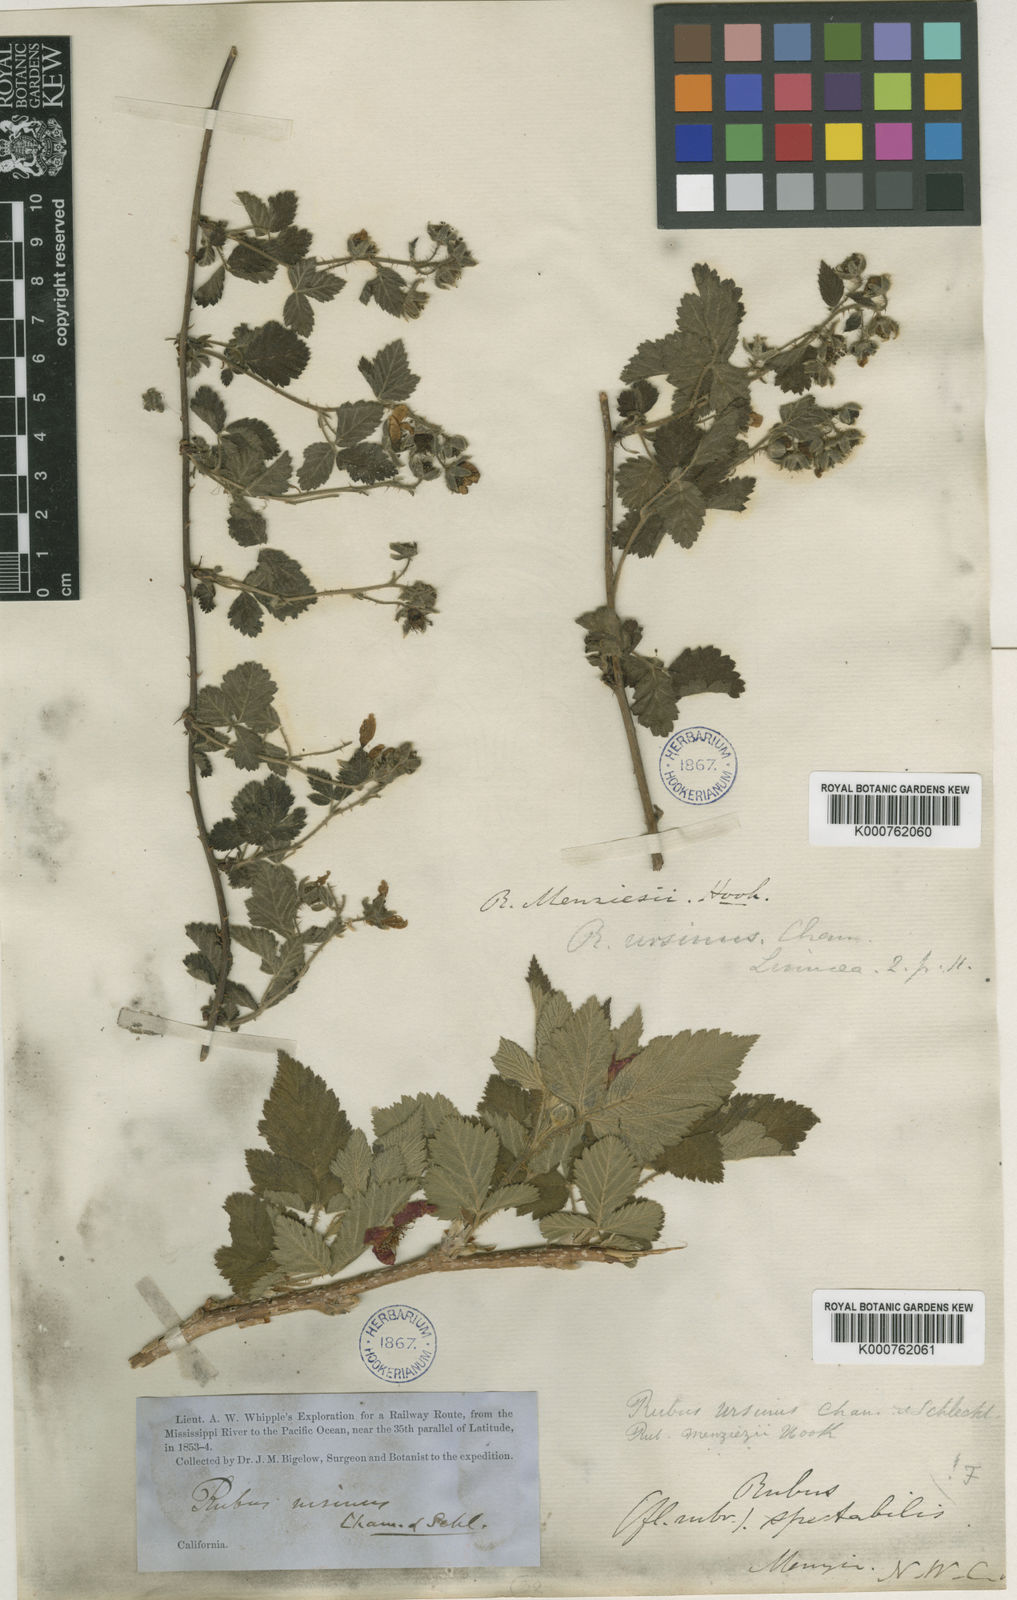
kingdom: Plantae
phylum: Tracheophyta
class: Magnoliopsida
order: Rosales
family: Rosaceae
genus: Rubus
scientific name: Rubus ursinus
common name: Pacific blackberry
